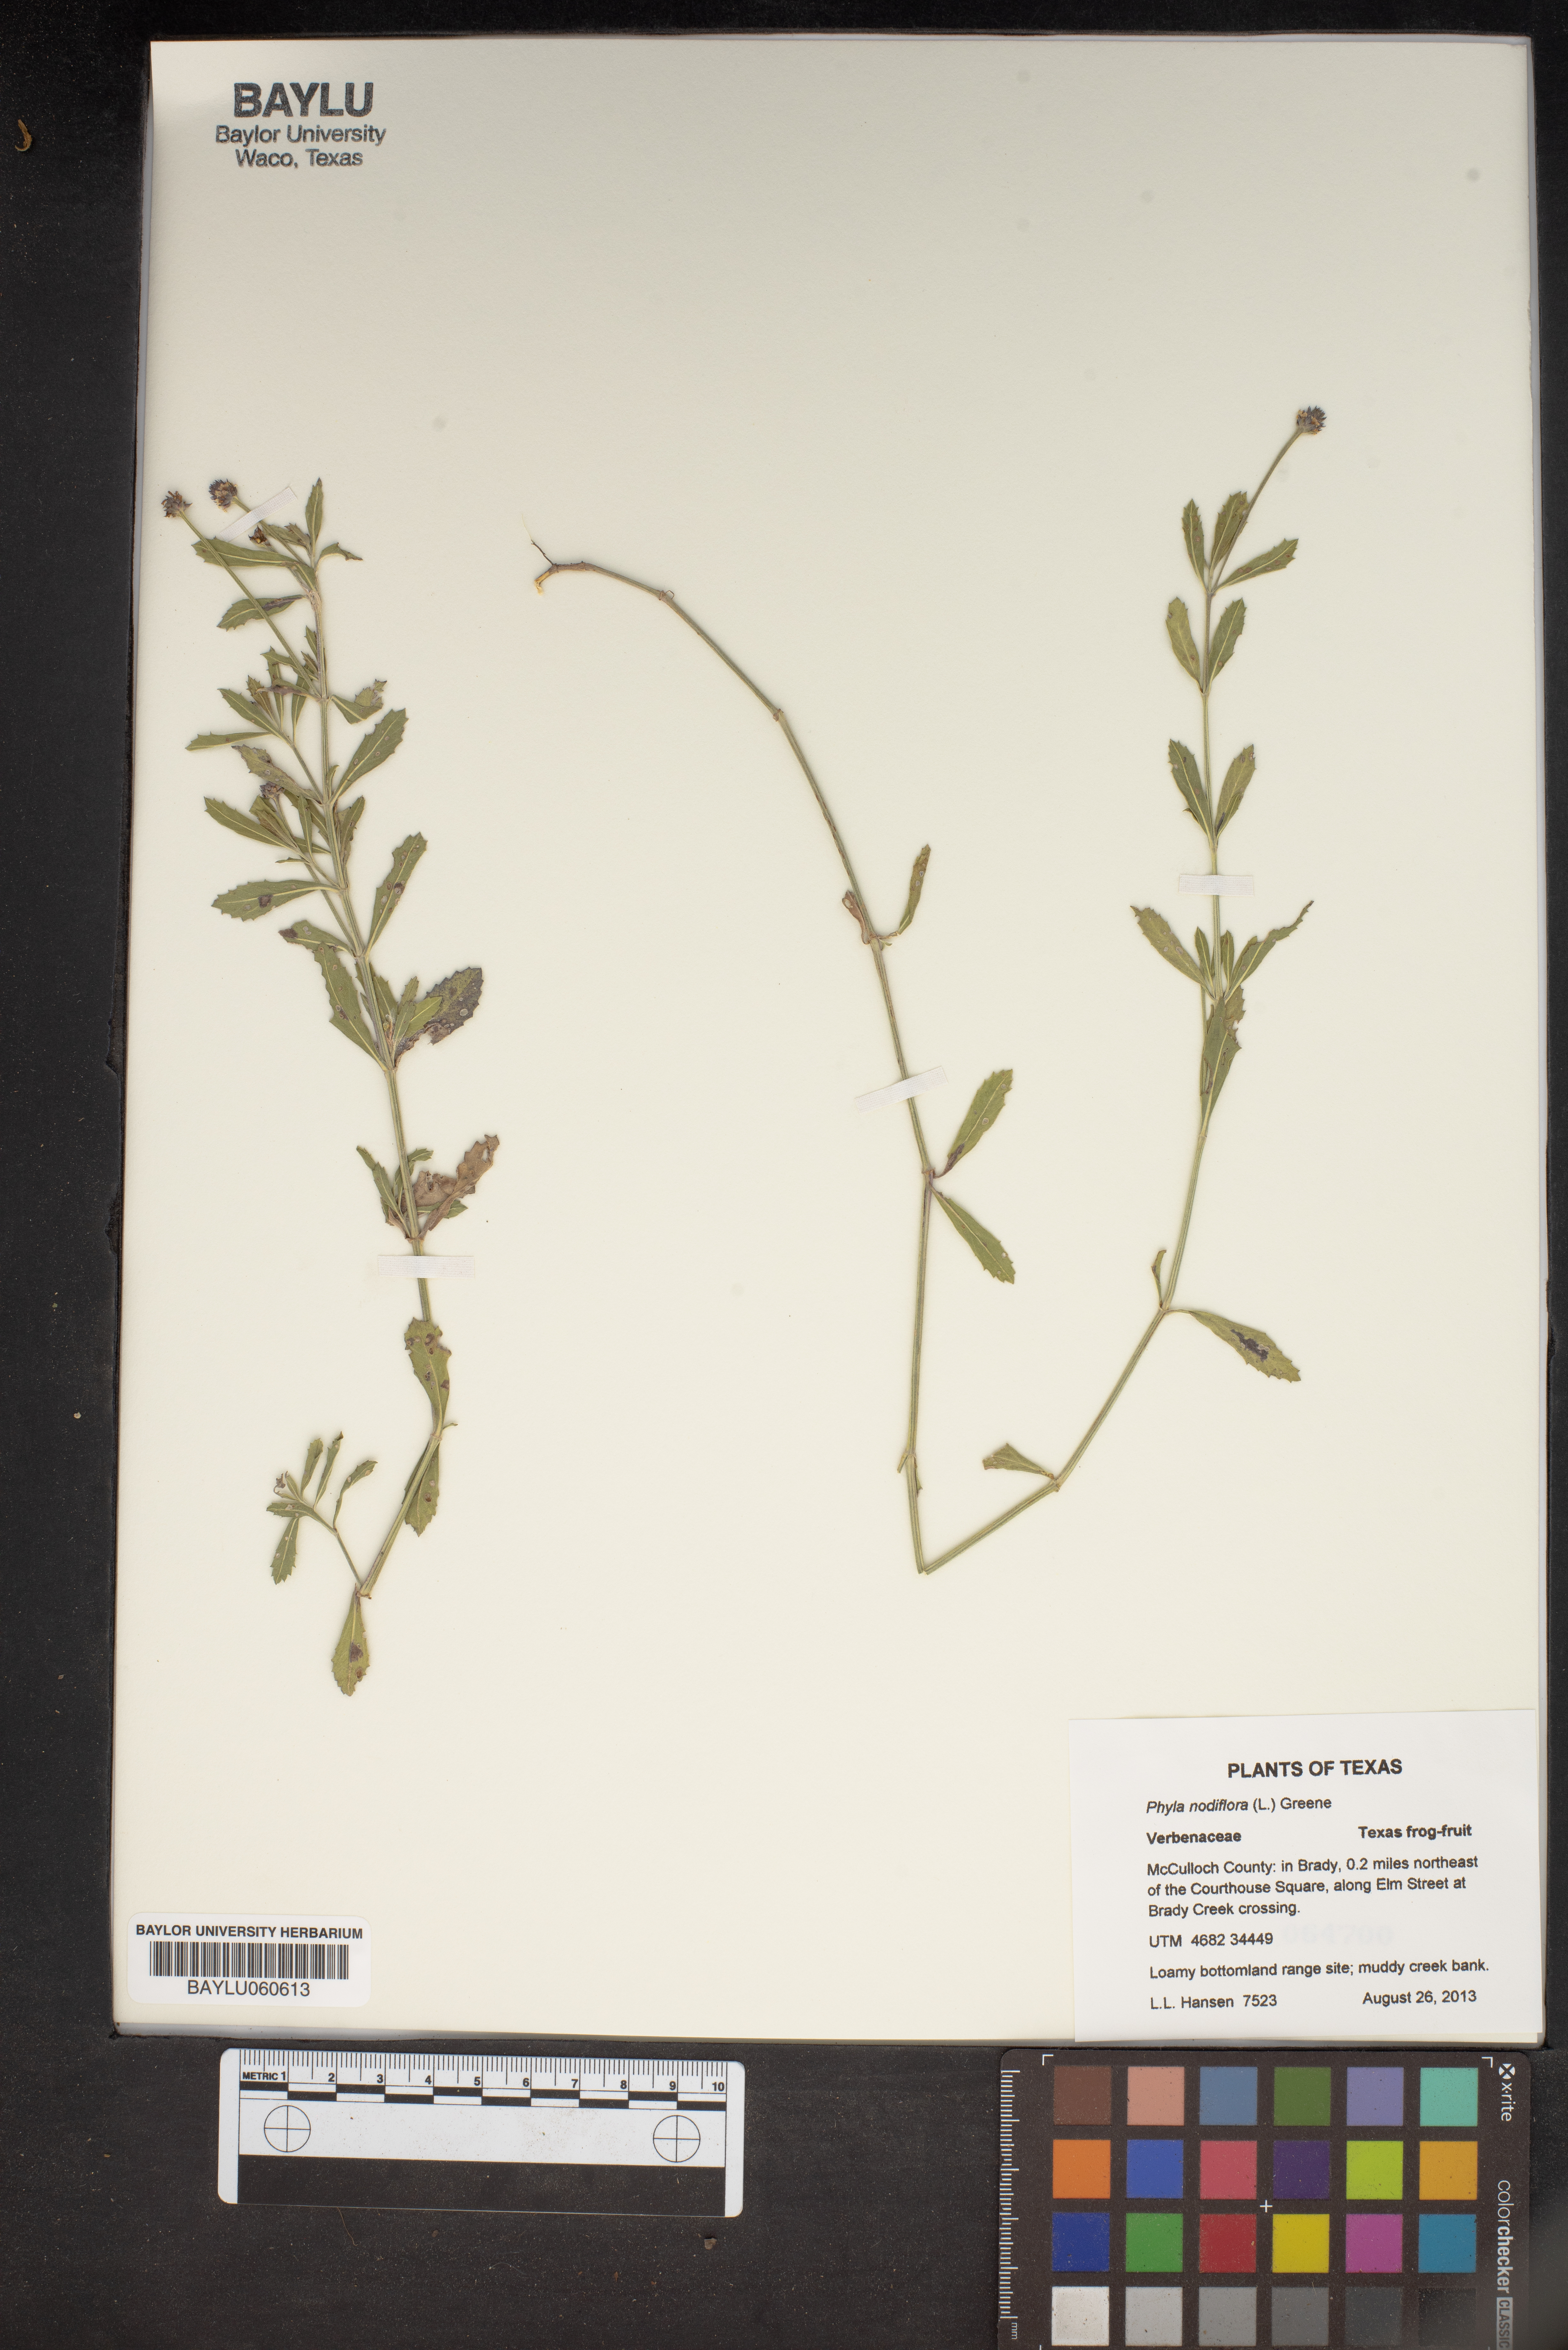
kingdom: Plantae
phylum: Tracheophyta
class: Magnoliopsida
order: Lamiales
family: Verbenaceae
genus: Phyla
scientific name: Phyla nodiflora
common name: Frogfruit
